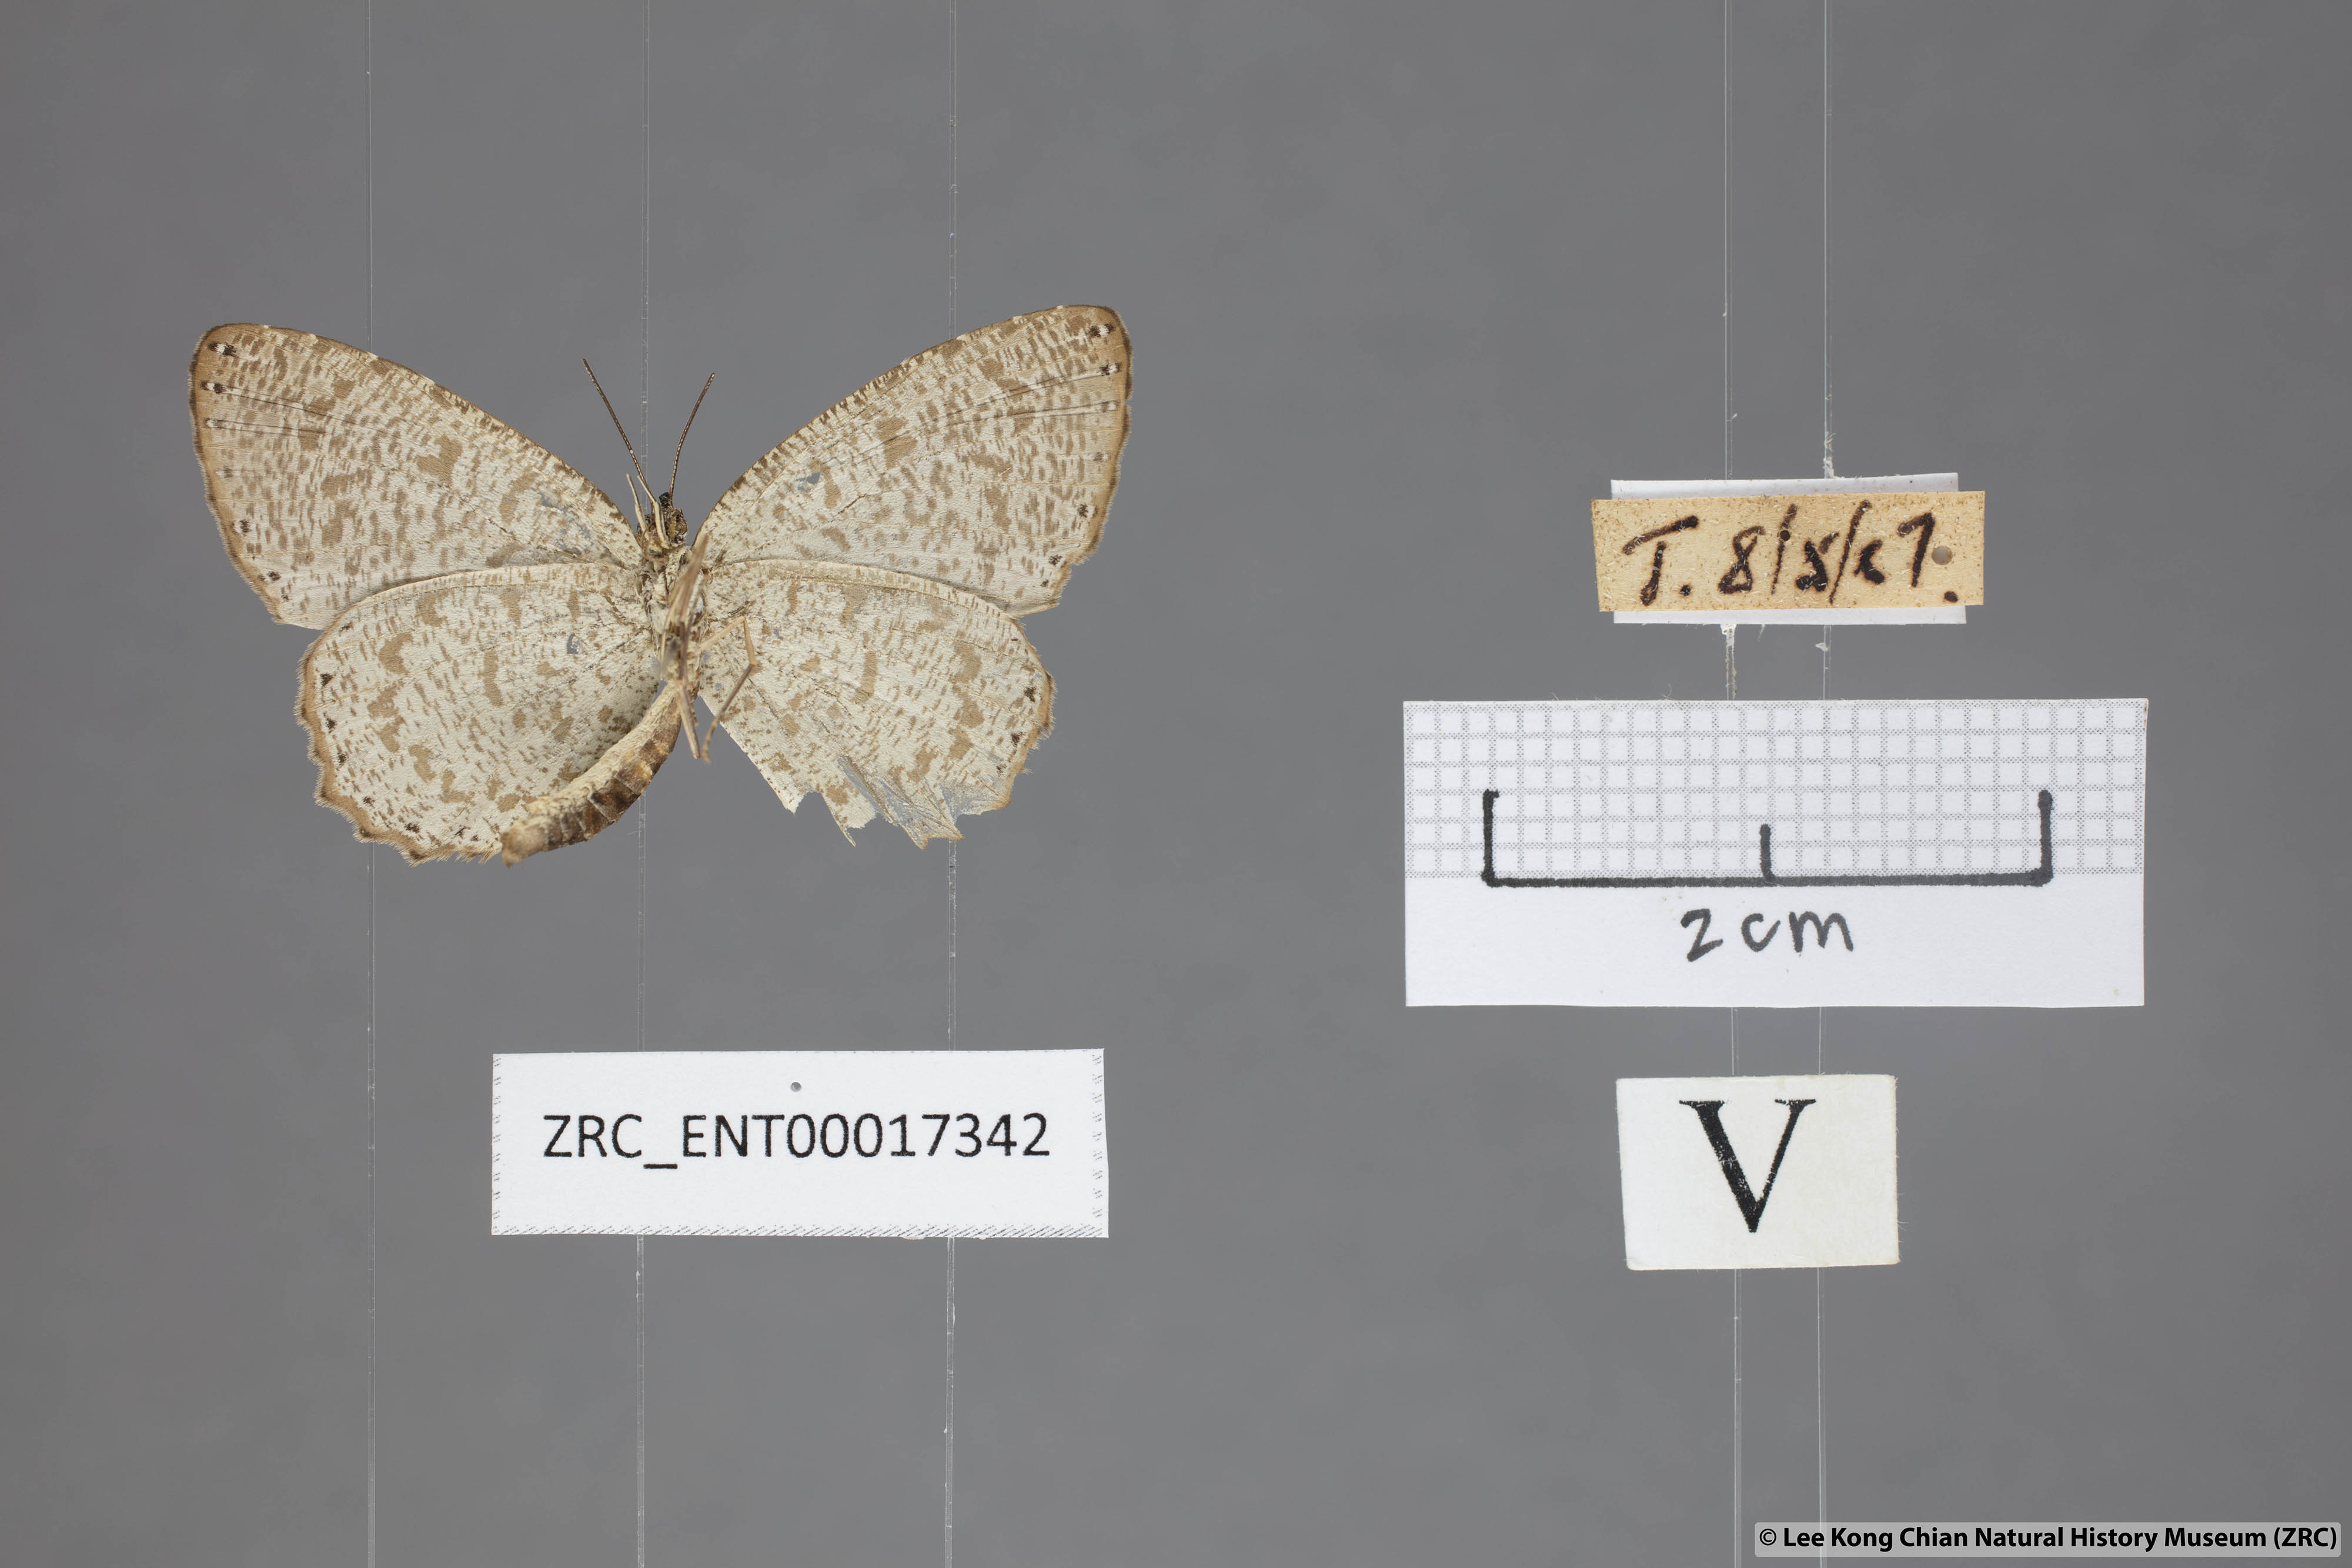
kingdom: Animalia
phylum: Arthropoda
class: Insecta
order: Lepidoptera
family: Lycaenidae
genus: Allotinus
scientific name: Allotinus sarastes
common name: Peninsular darkie
